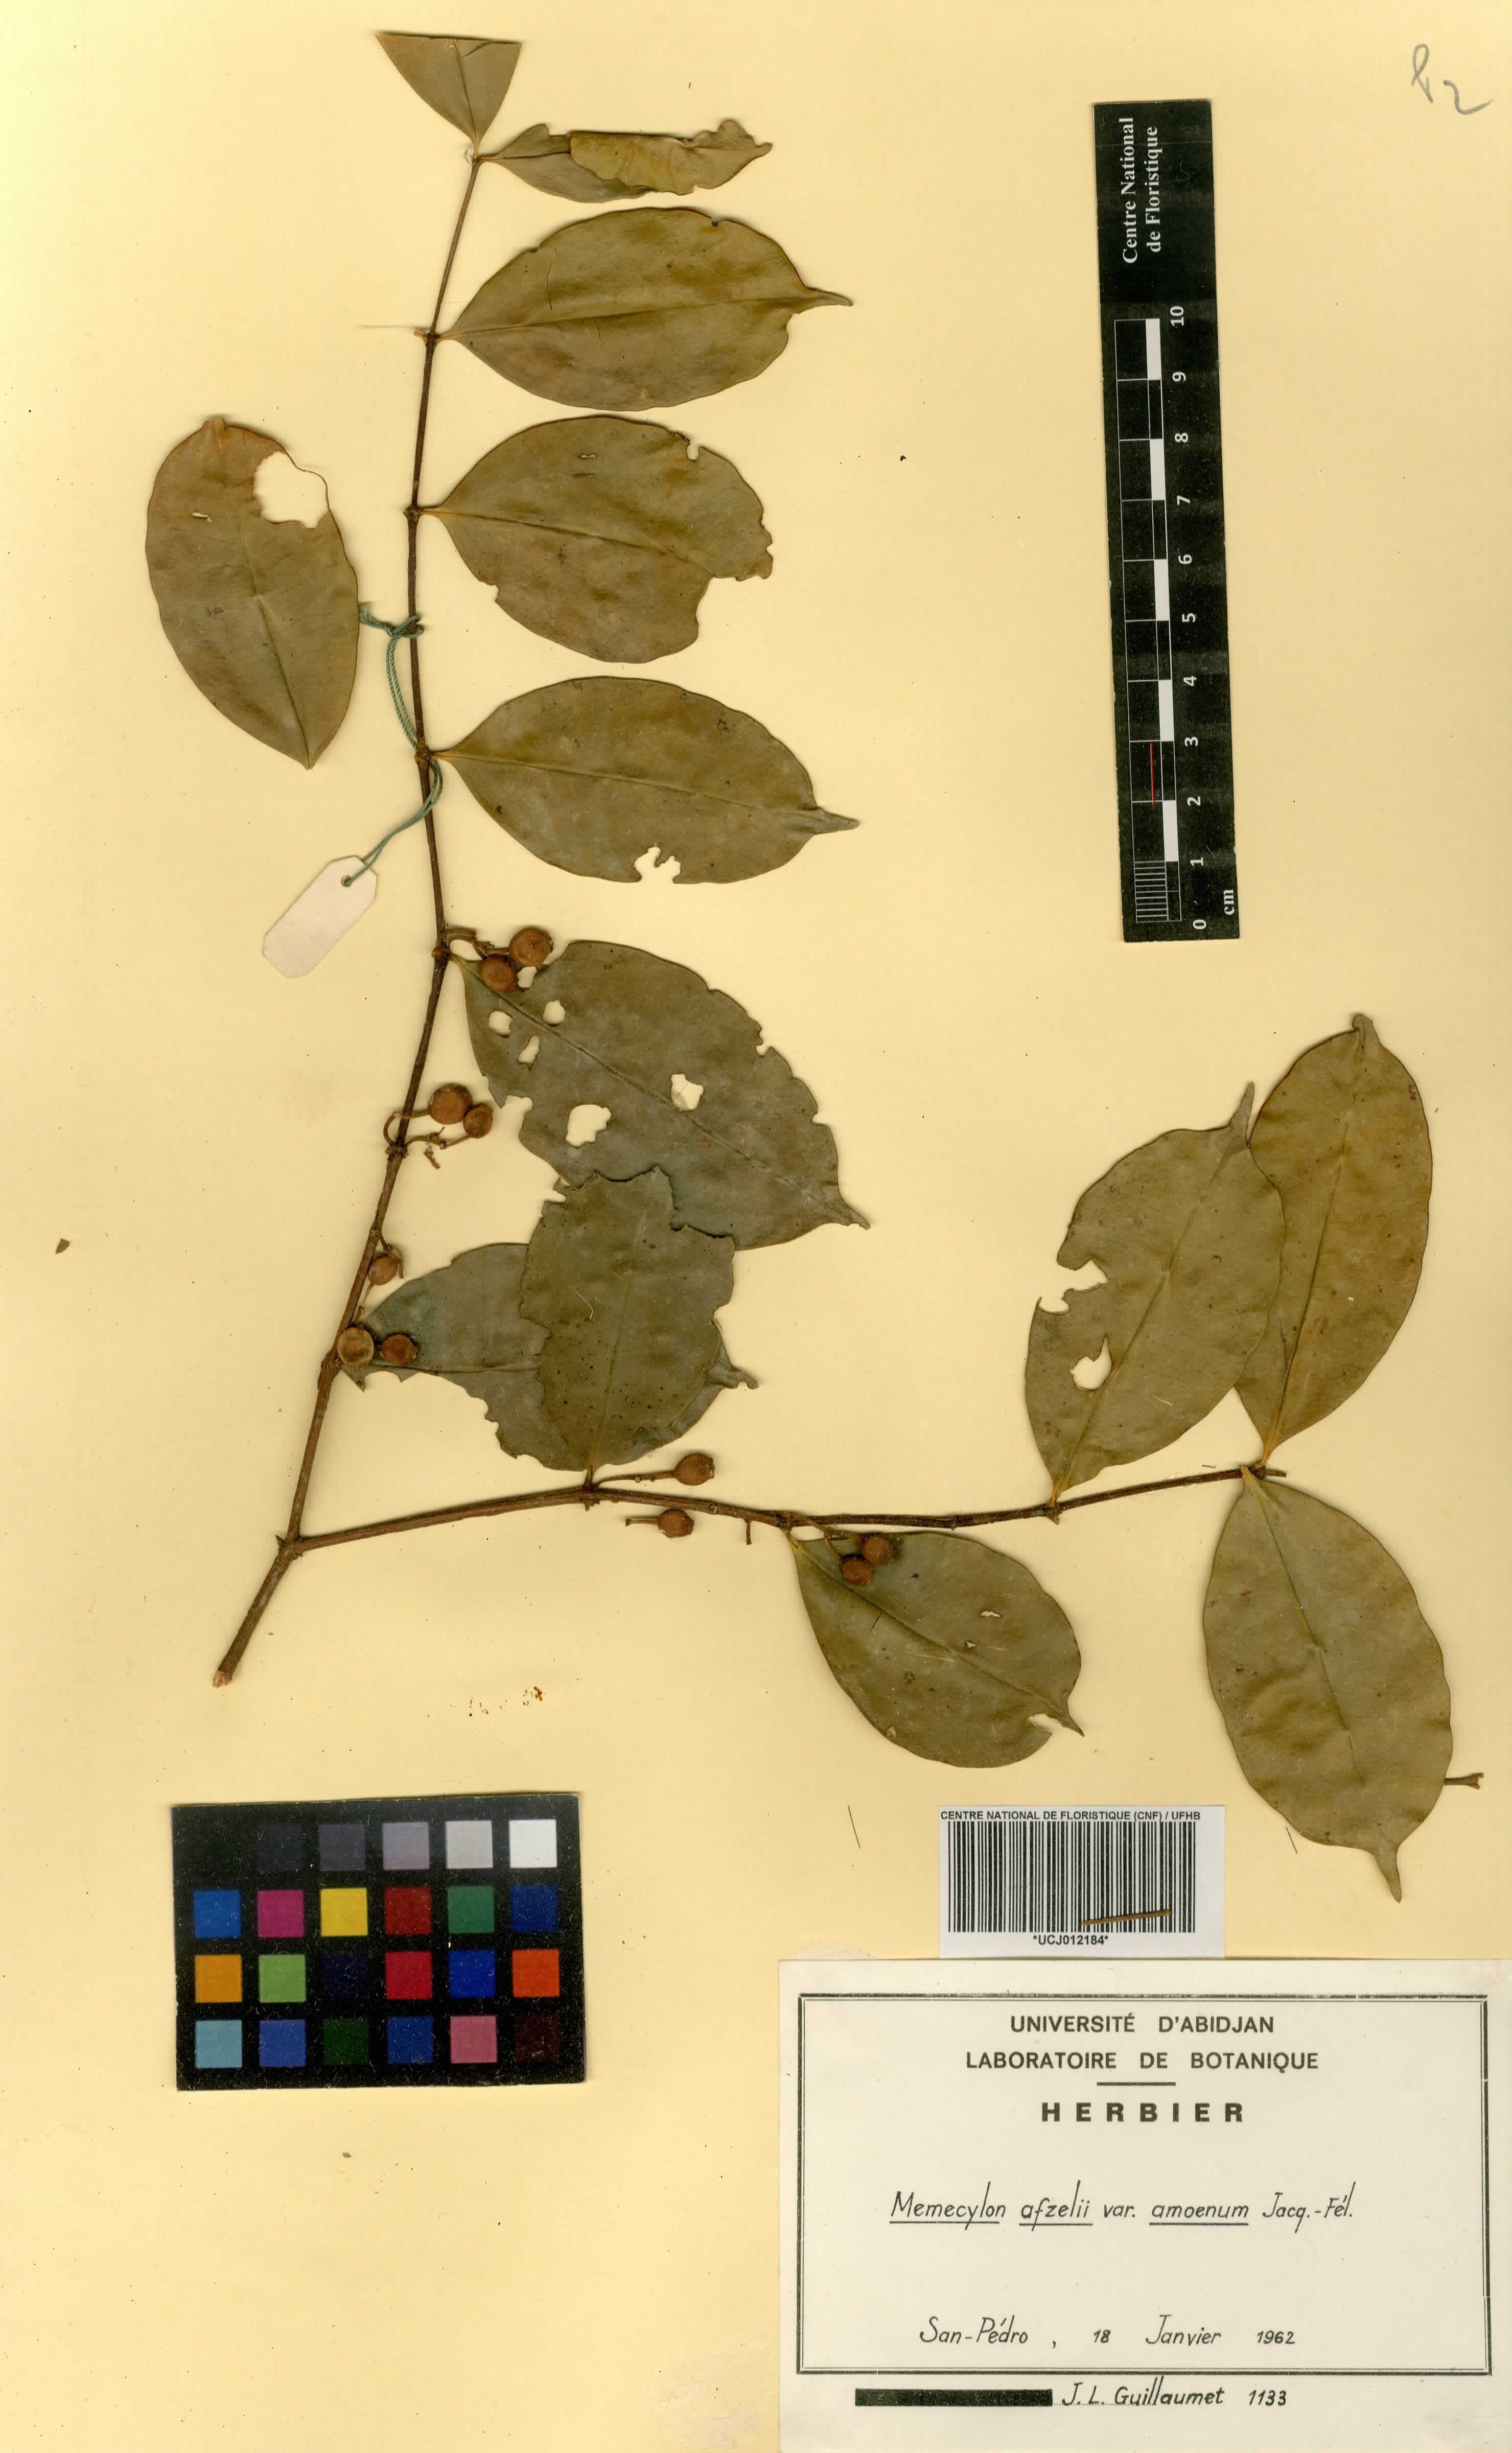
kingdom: Plantae
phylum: Tracheophyta
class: Magnoliopsida
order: Myrtales
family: Melastomataceae
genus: Memecylon
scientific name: Memecylon accedens
